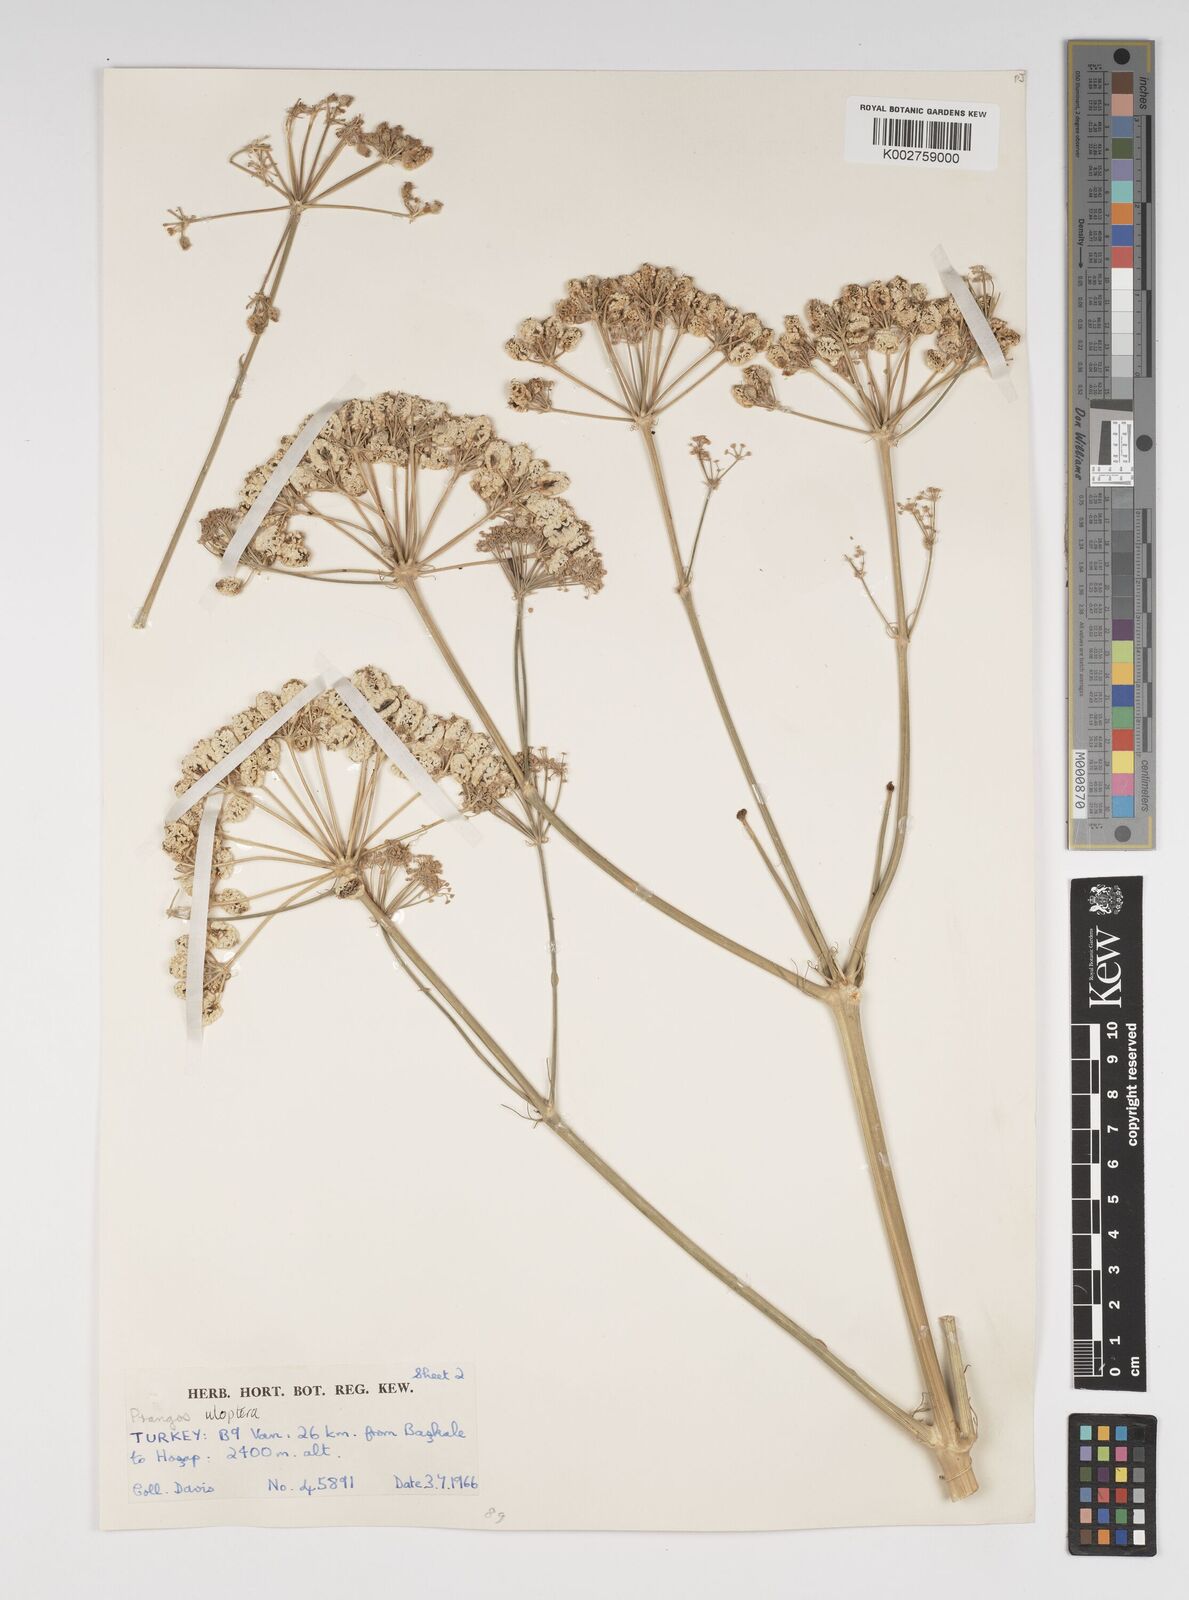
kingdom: Plantae
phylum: Tracheophyta
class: Magnoliopsida
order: Apiales
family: Apiaceae
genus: Prangos
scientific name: Prangos uloptera
